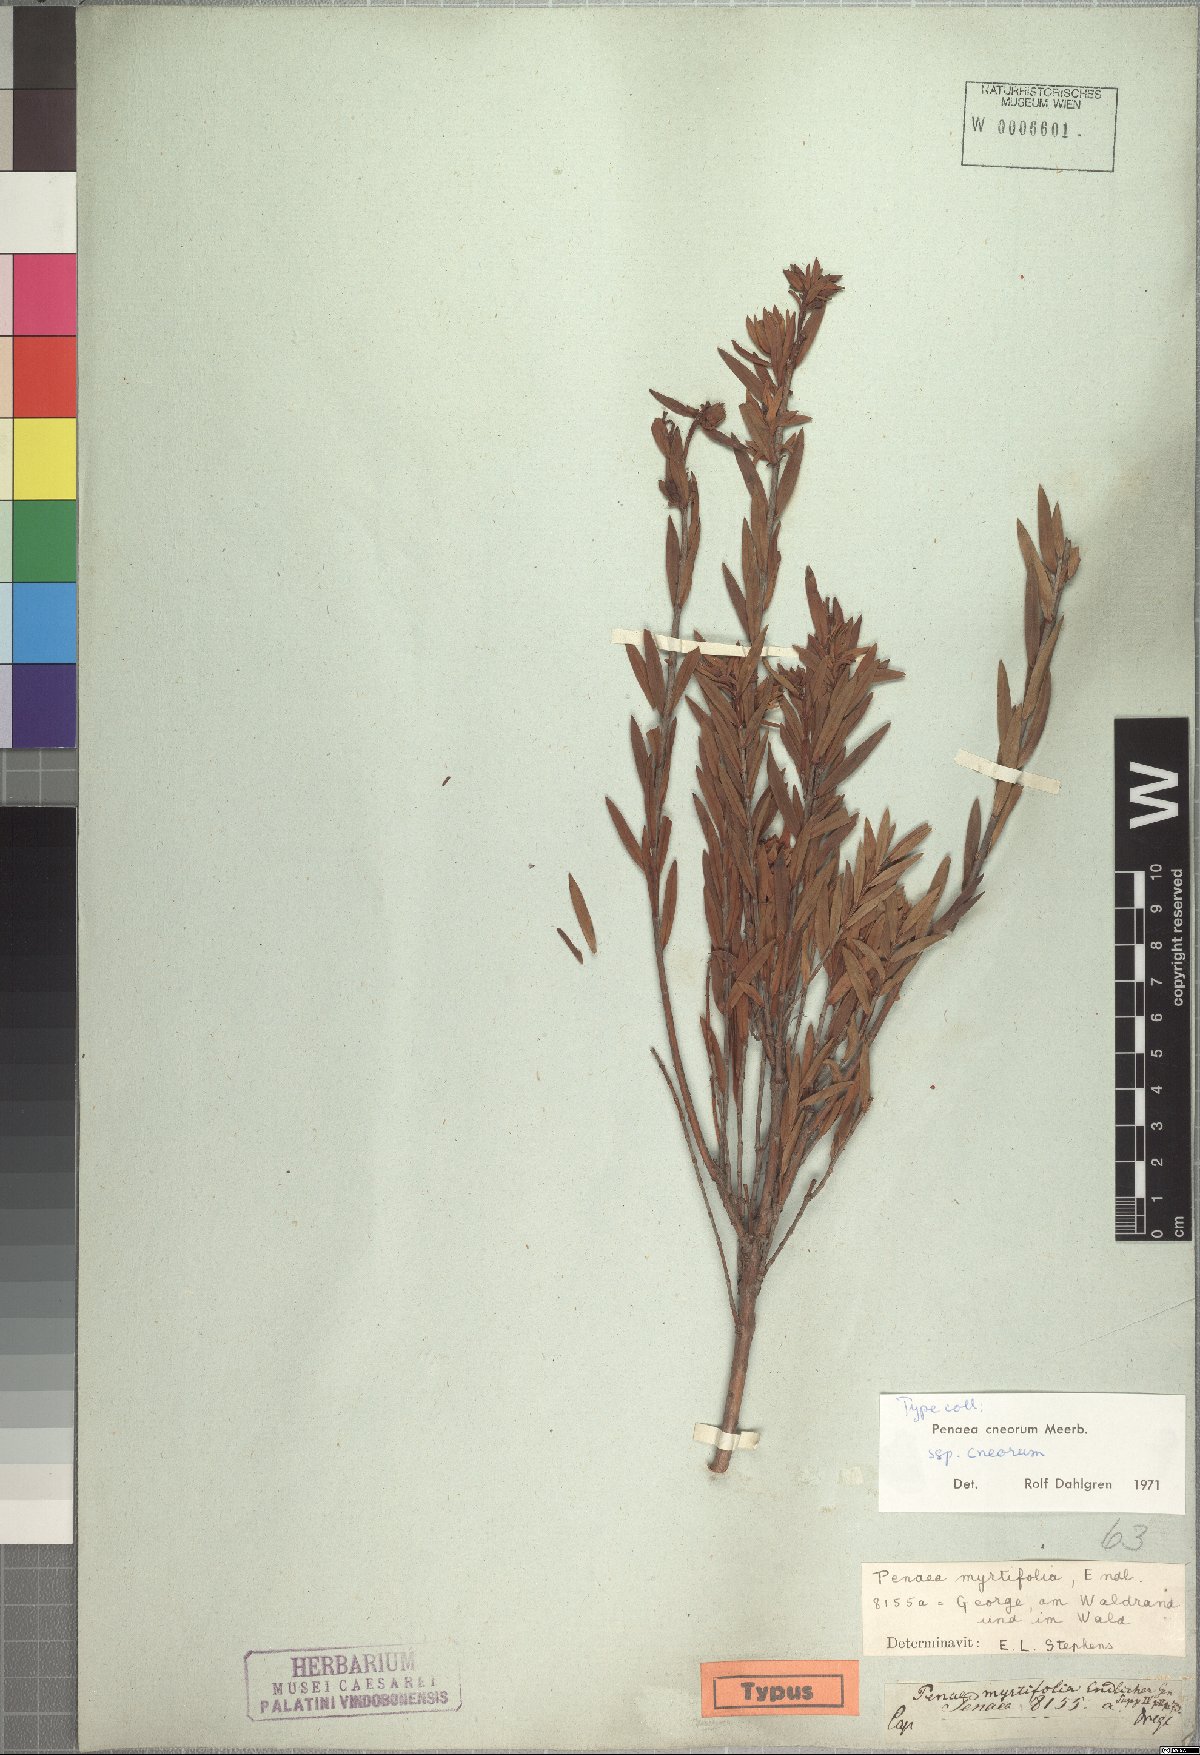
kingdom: Plantae
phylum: Tracheophyta
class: Magnoliopsida
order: Myrtales
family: Penaeaceae
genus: Penaea
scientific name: Penaea cneorum
